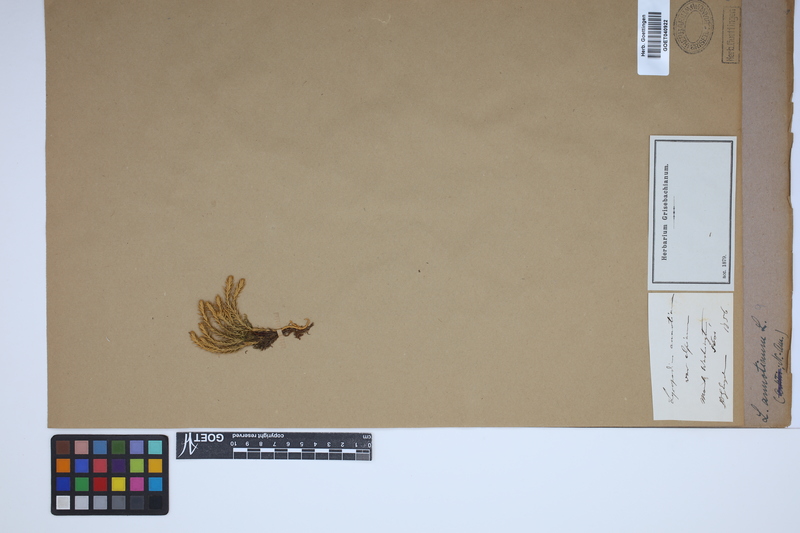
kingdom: Plantae
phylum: Tracheophyta
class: Lycopodiopsida
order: Lycopodiales
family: Lycopodiaceae
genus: Spinulum
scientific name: Spinulum annotinum
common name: Interrupted club-moss
